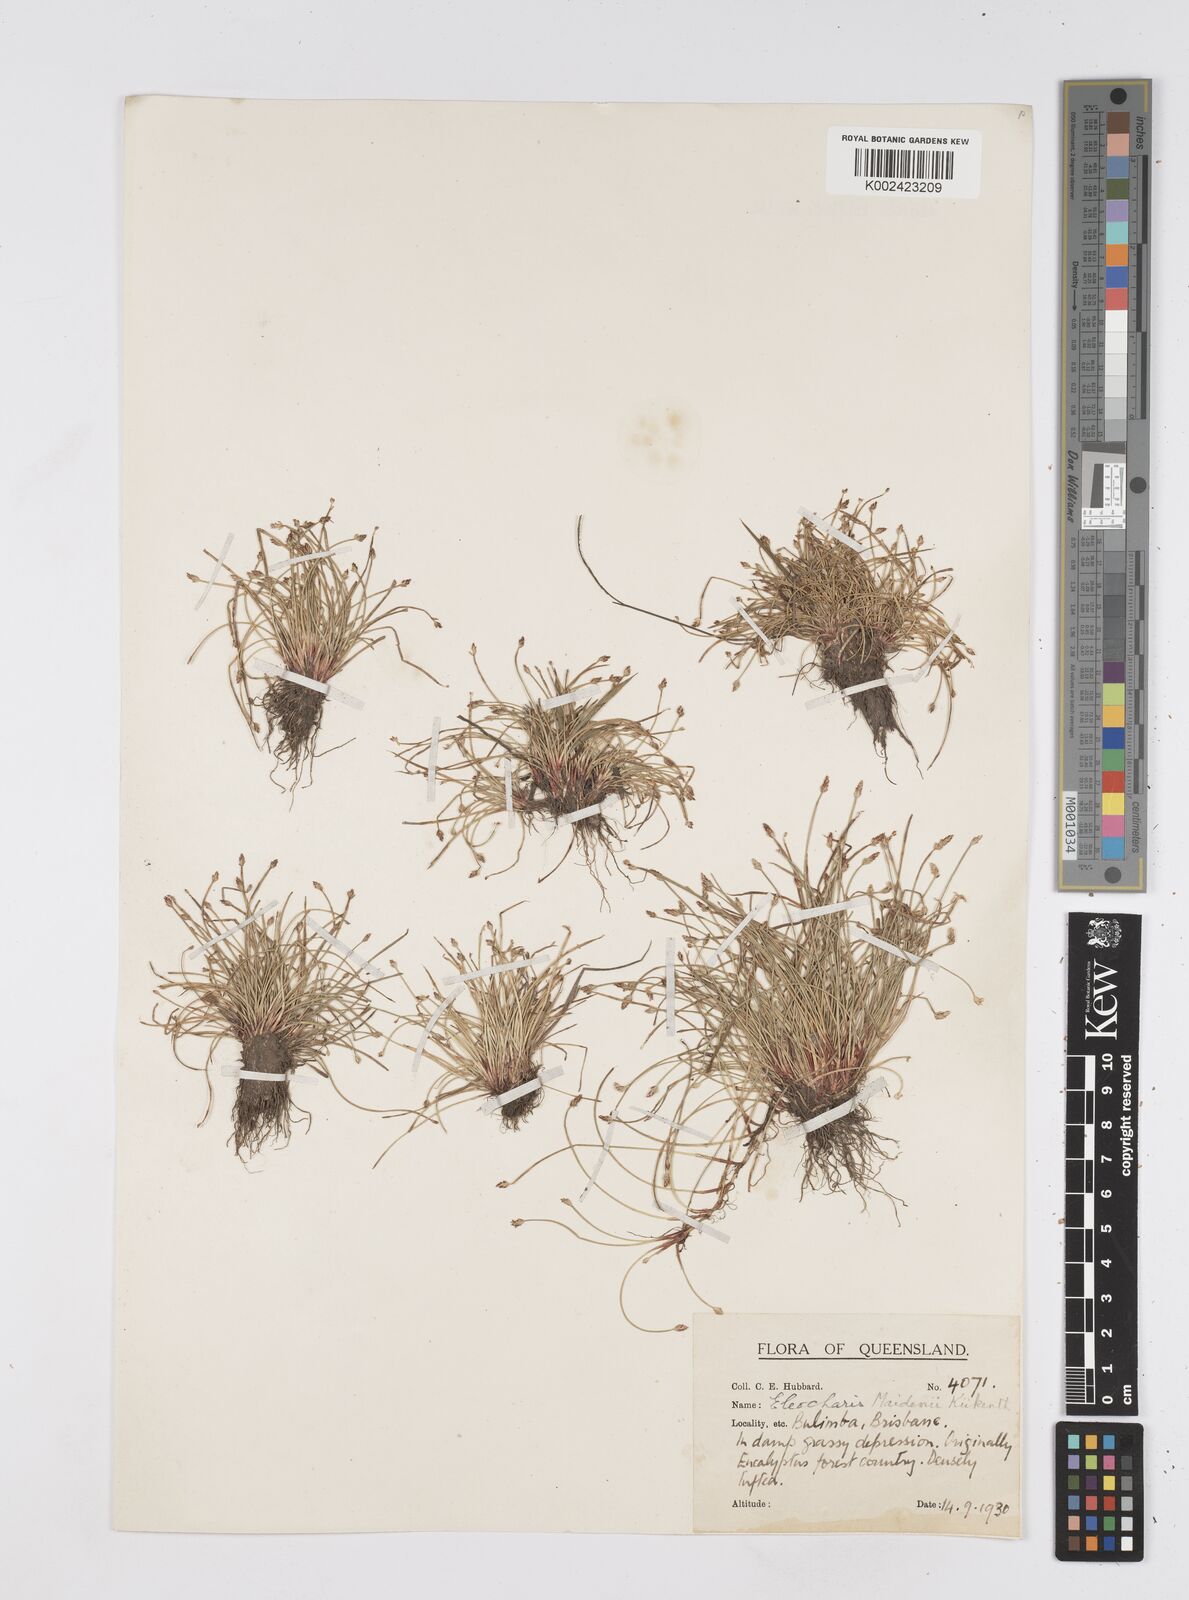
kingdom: Plantae
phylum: Tracheophyta
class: Liliopsida
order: Poales
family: Cyperaceae
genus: Eleocharis
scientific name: Eleocharis minuta
